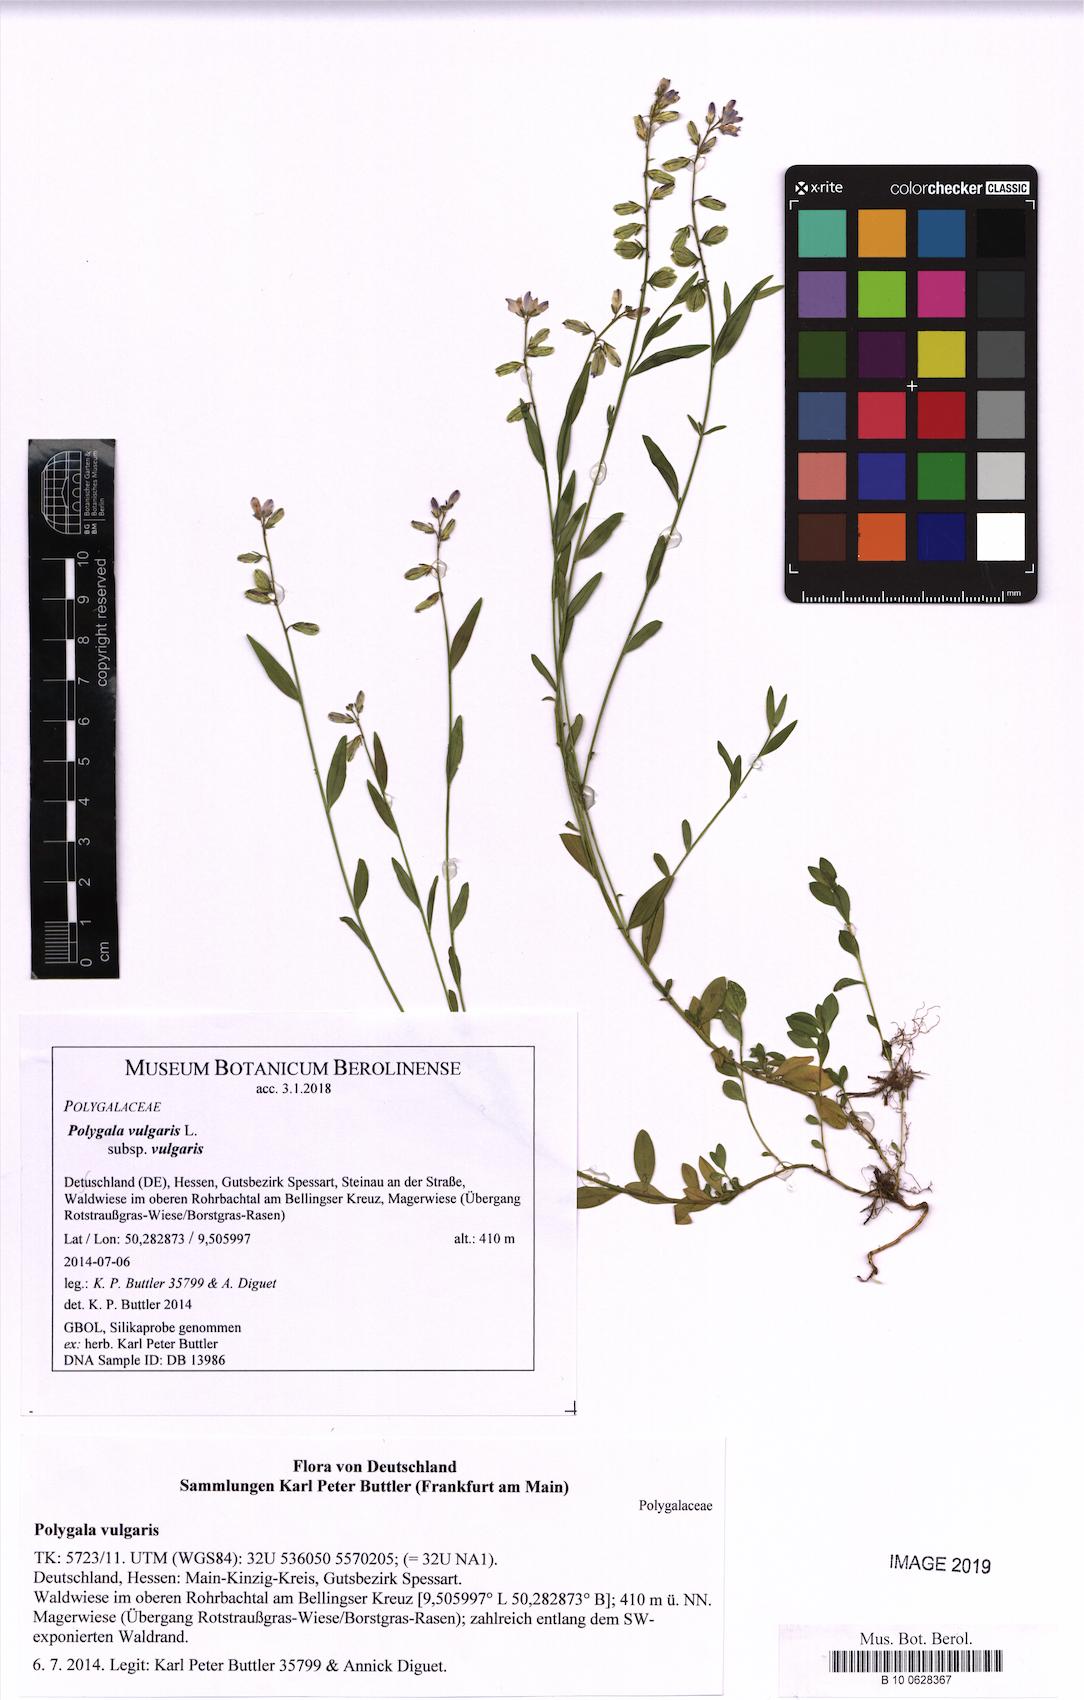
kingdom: Plantae
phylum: Tracheophyta
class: Magnoliopsida
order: Fabales
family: Polygalaceae
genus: Polygala
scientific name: Polygala vulgaris
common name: Common milkwort
